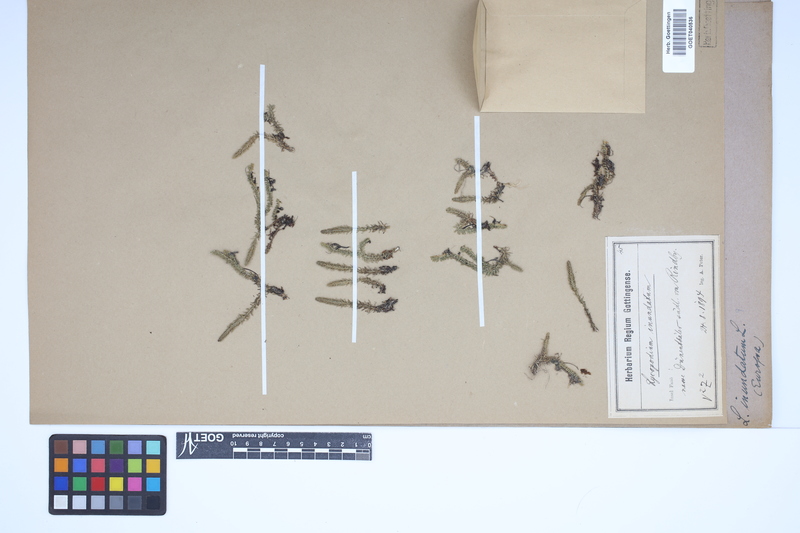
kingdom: Plantae
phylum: Tracheophyta
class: Lycopodiopsida
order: Lycopodiales
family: Lycopodiaceae
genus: Lycopodiella
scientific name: Lycopodiella inundata
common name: Marsh clubmoss
